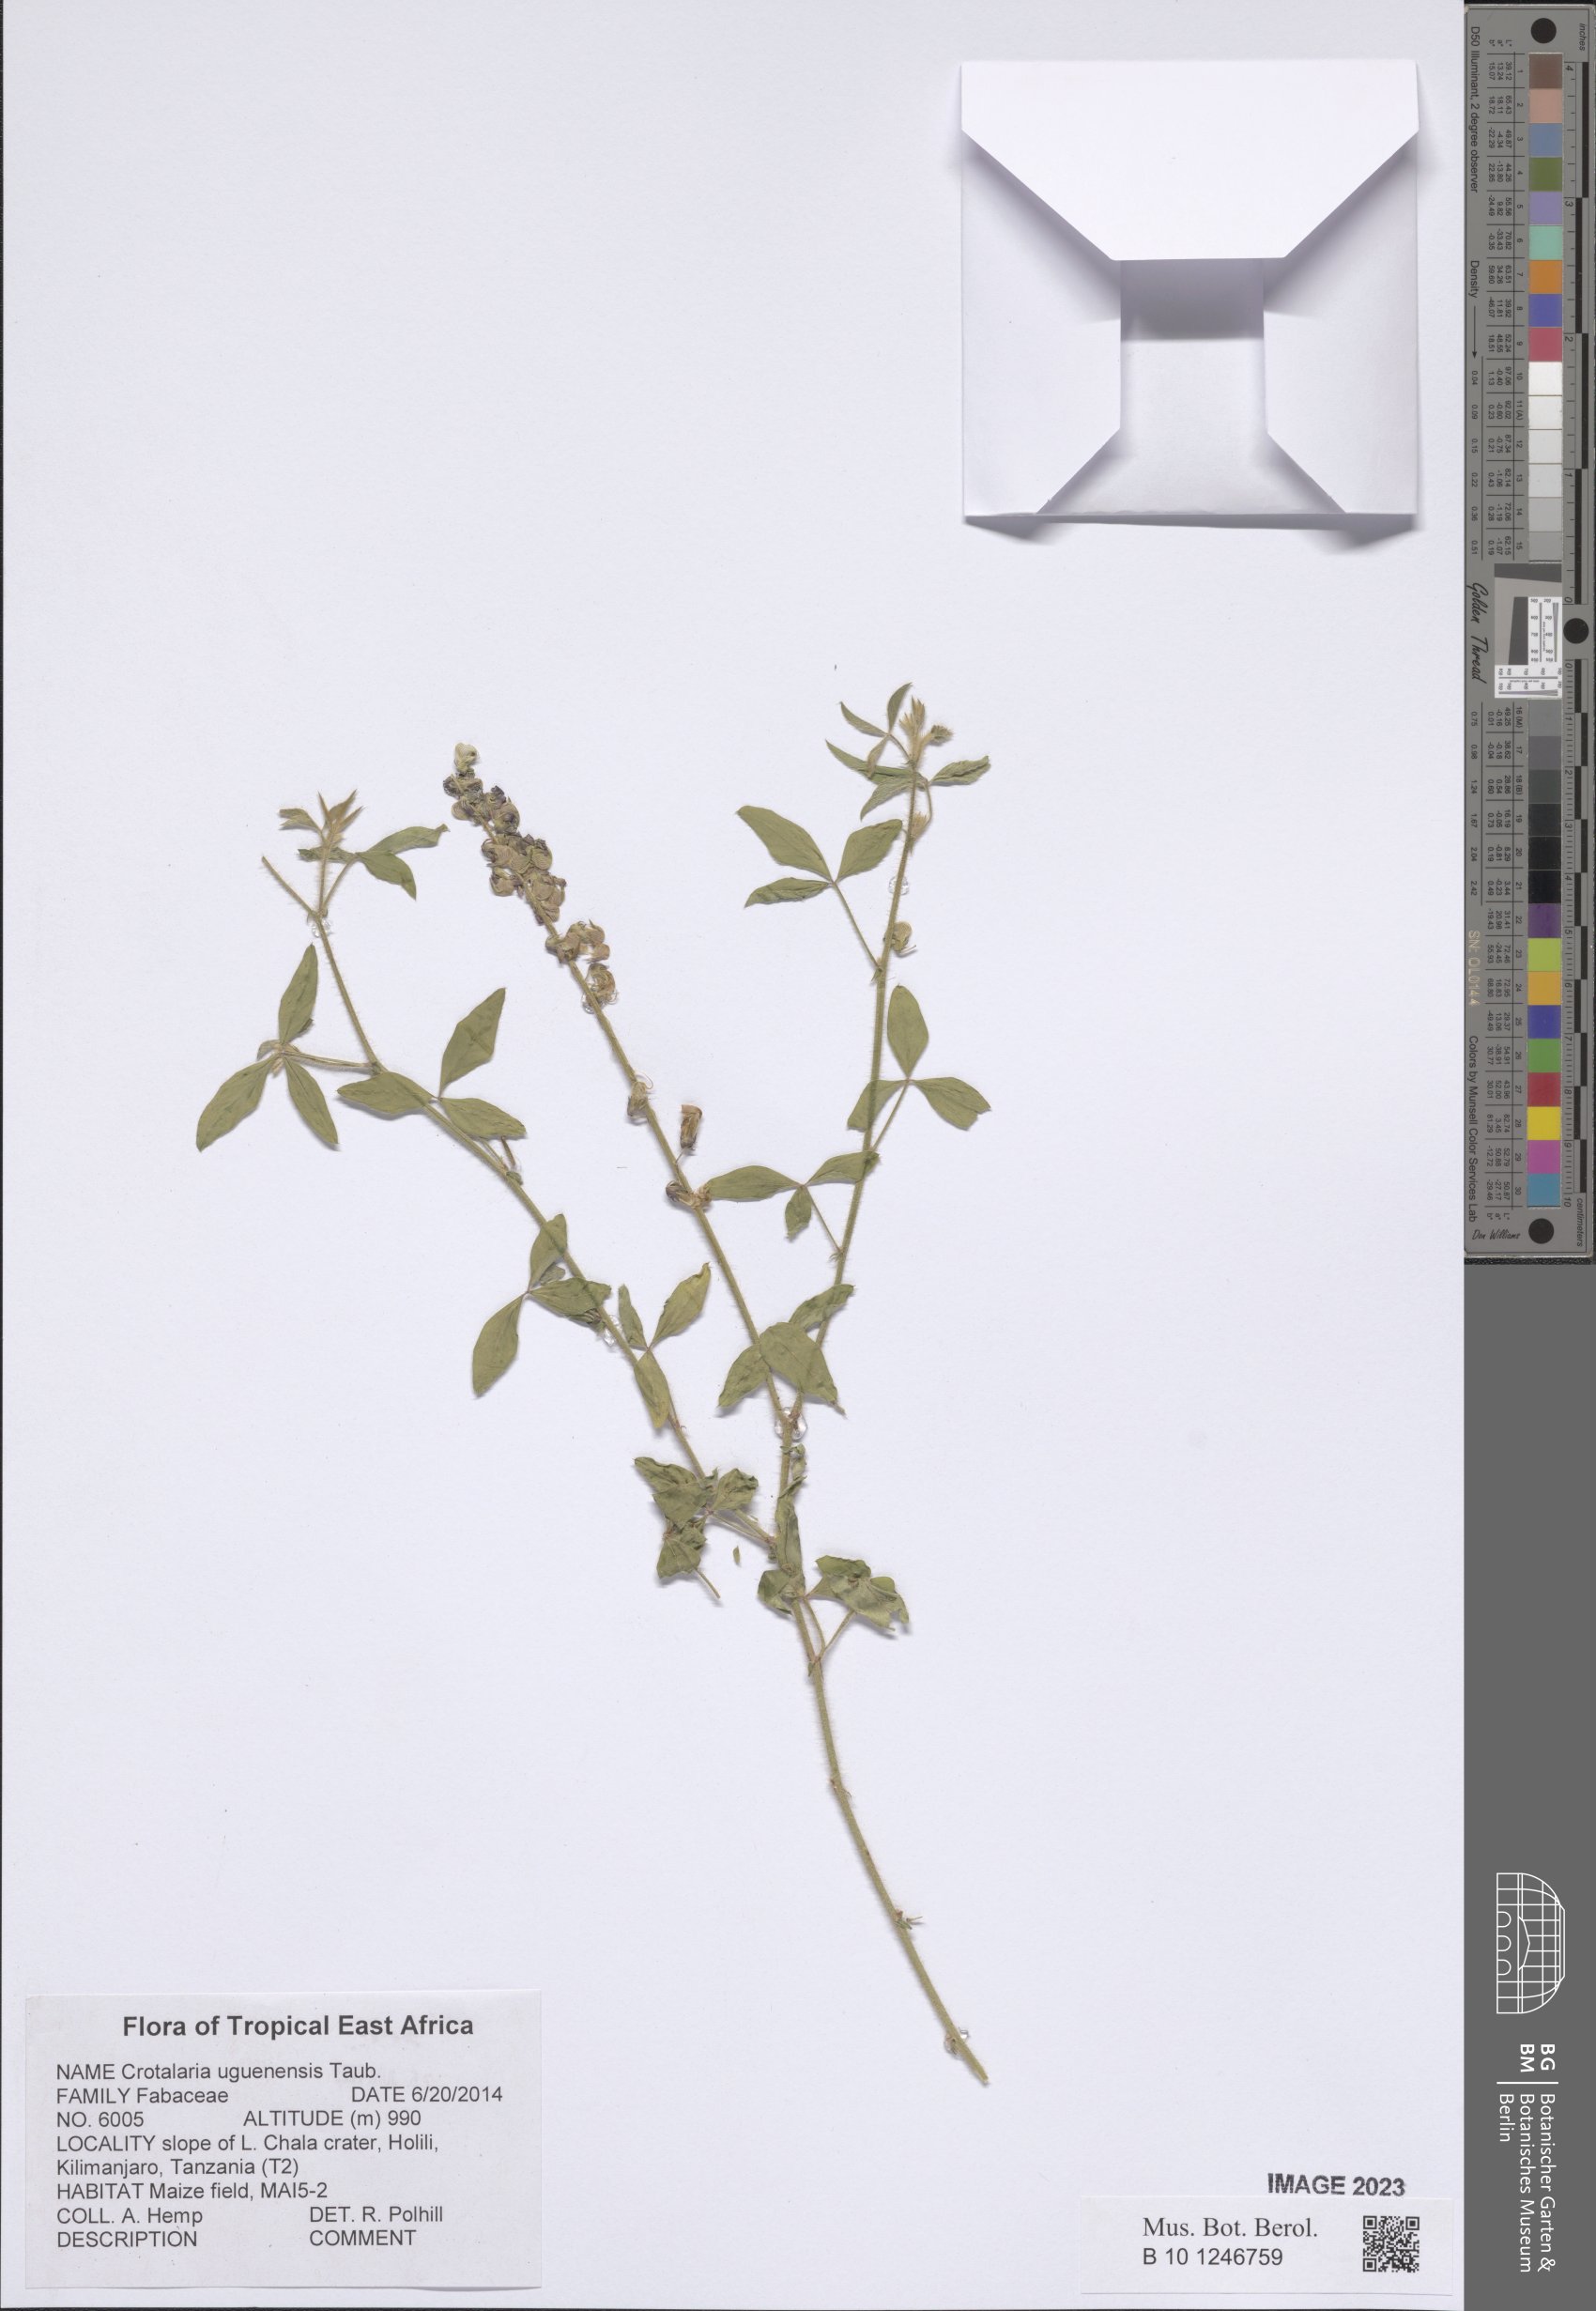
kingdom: Plantae
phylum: Tracheophyta
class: Magnoliopsida
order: Fabales
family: Fabaceae
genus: Crotalaria
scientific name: Crotalaria uguenensis
